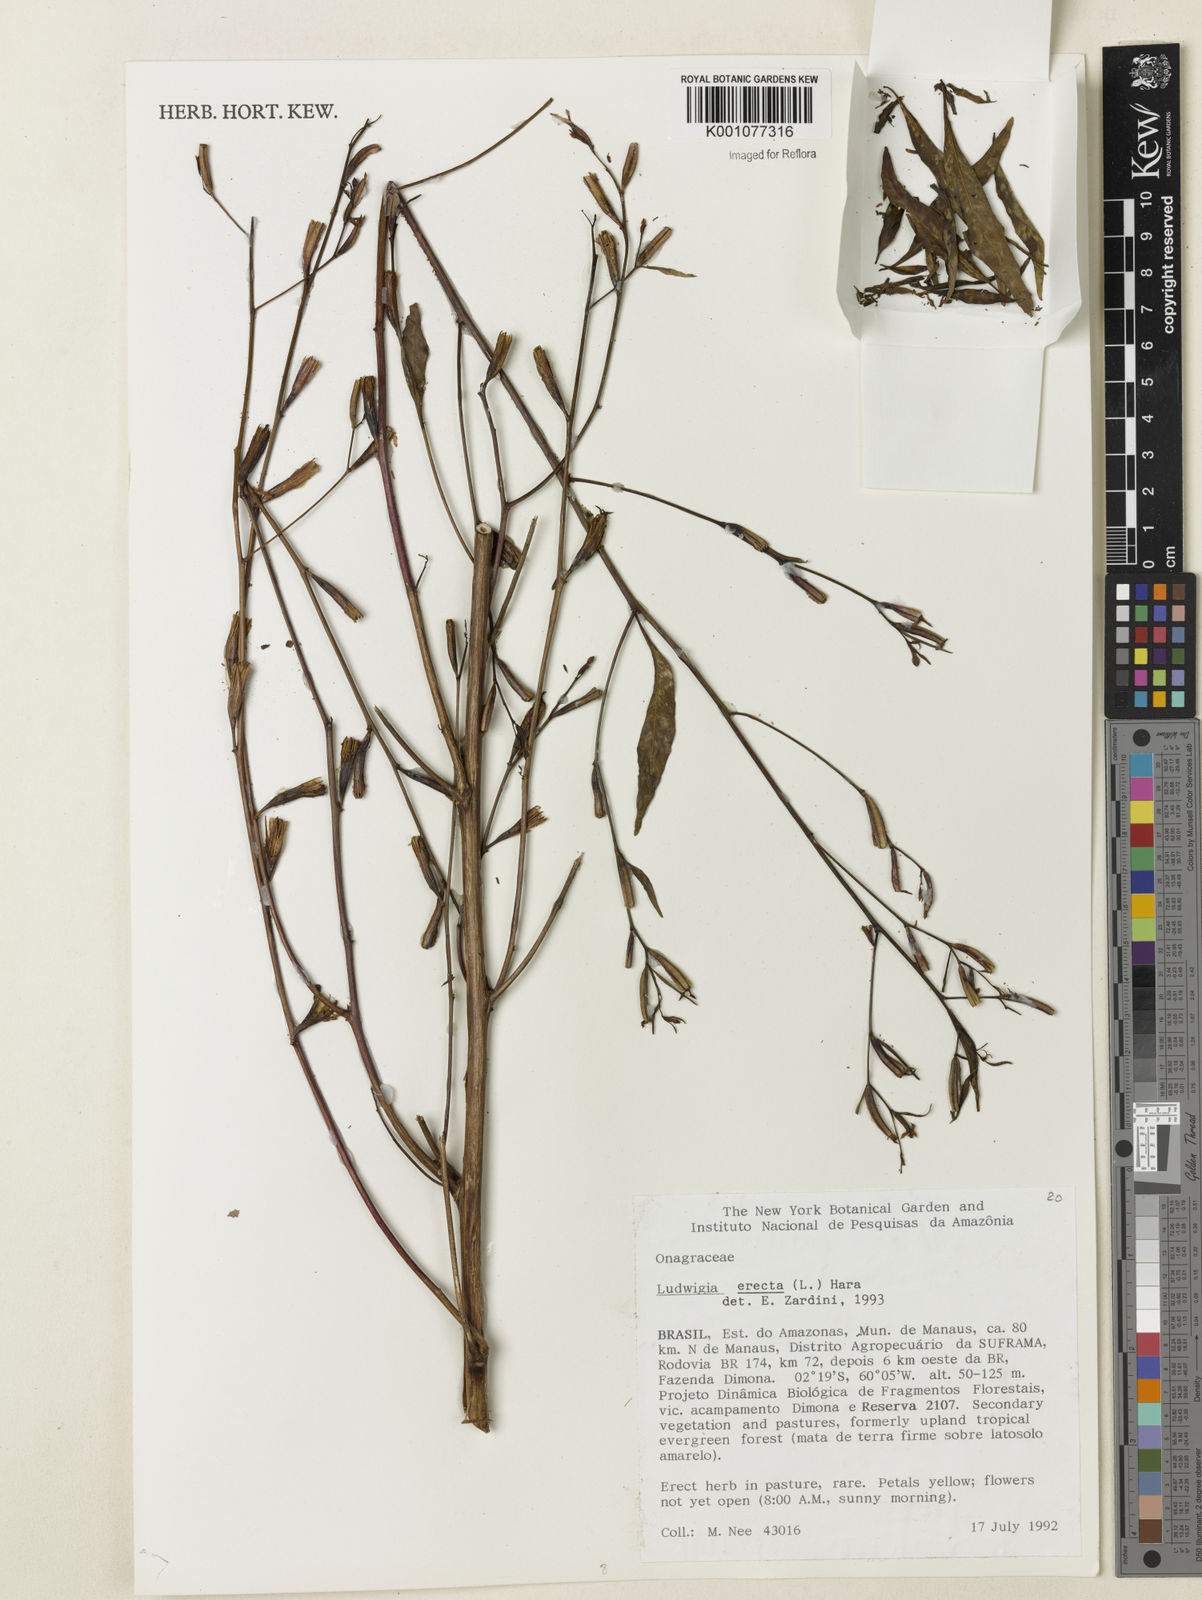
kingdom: Plantae
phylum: Tracheophyta
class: Magnoliopsida
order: Myrtales
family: Onagraceae
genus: Ludwigia
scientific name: Ludwigia erecta
